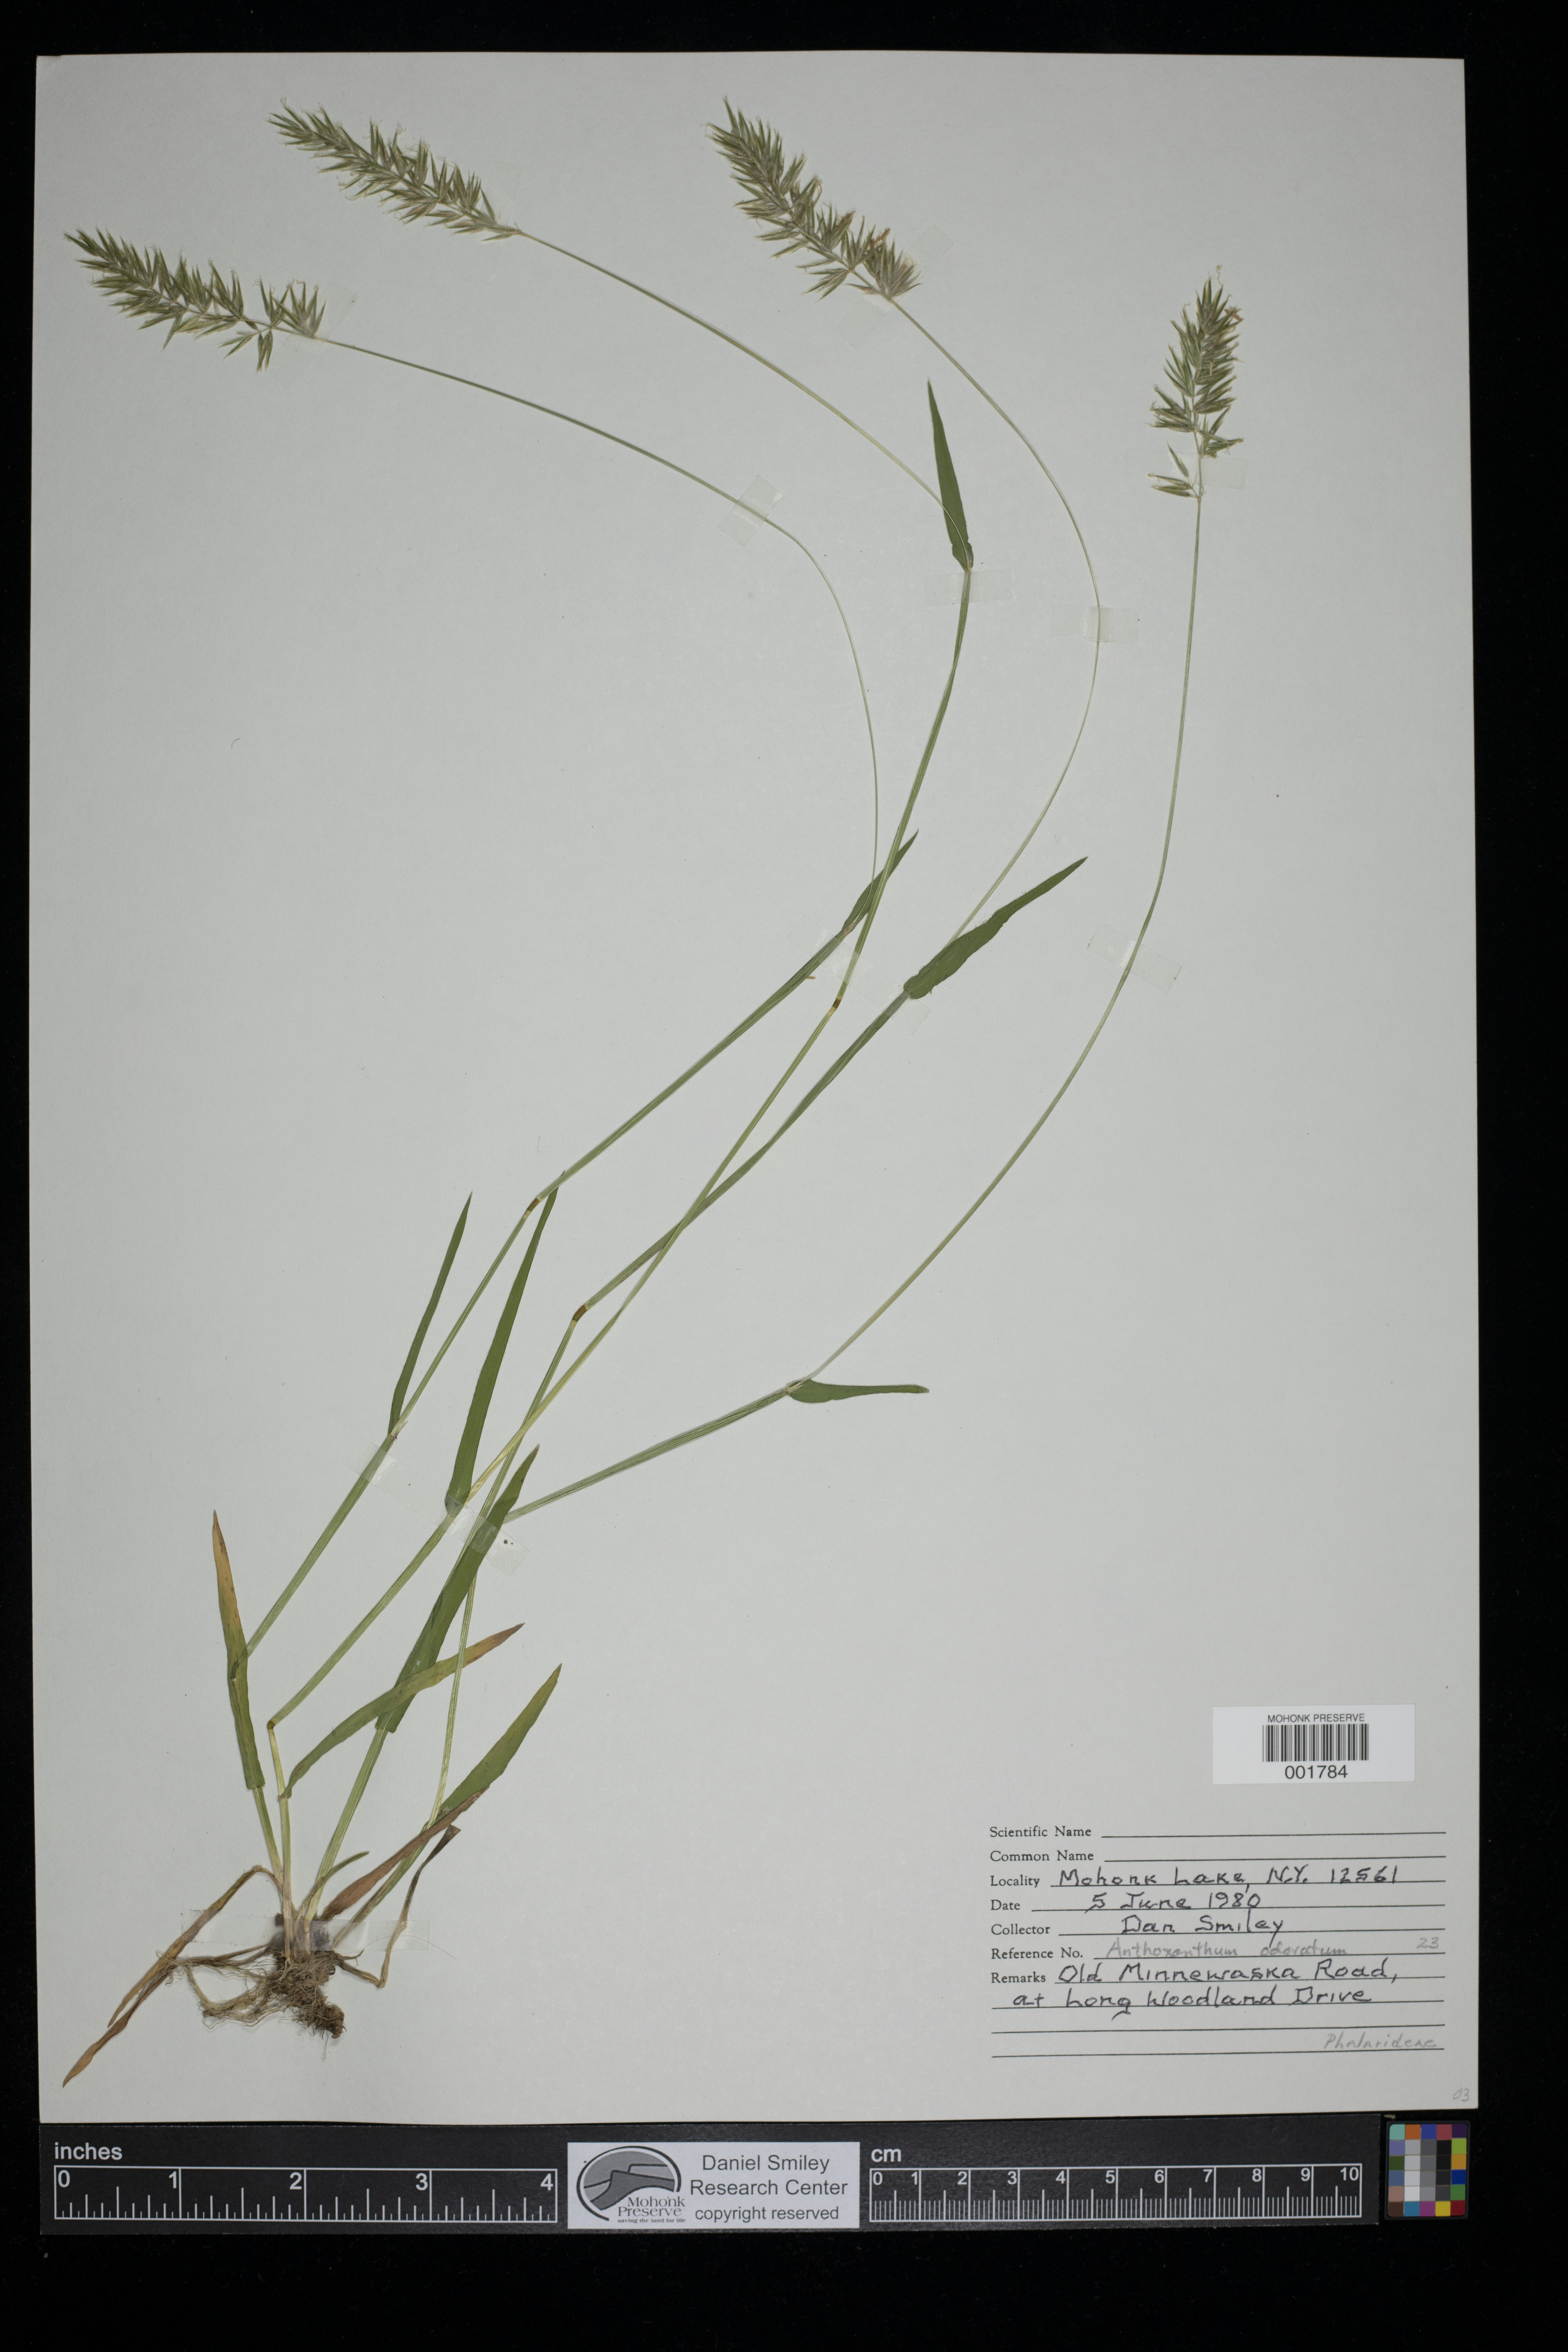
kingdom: Plantae
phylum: Tracheophyta
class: Liliopsida
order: Poales
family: Poaceae
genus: Anthoxanthum
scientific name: Anthoxanthum odoratum
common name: Sweet vernalgrass
